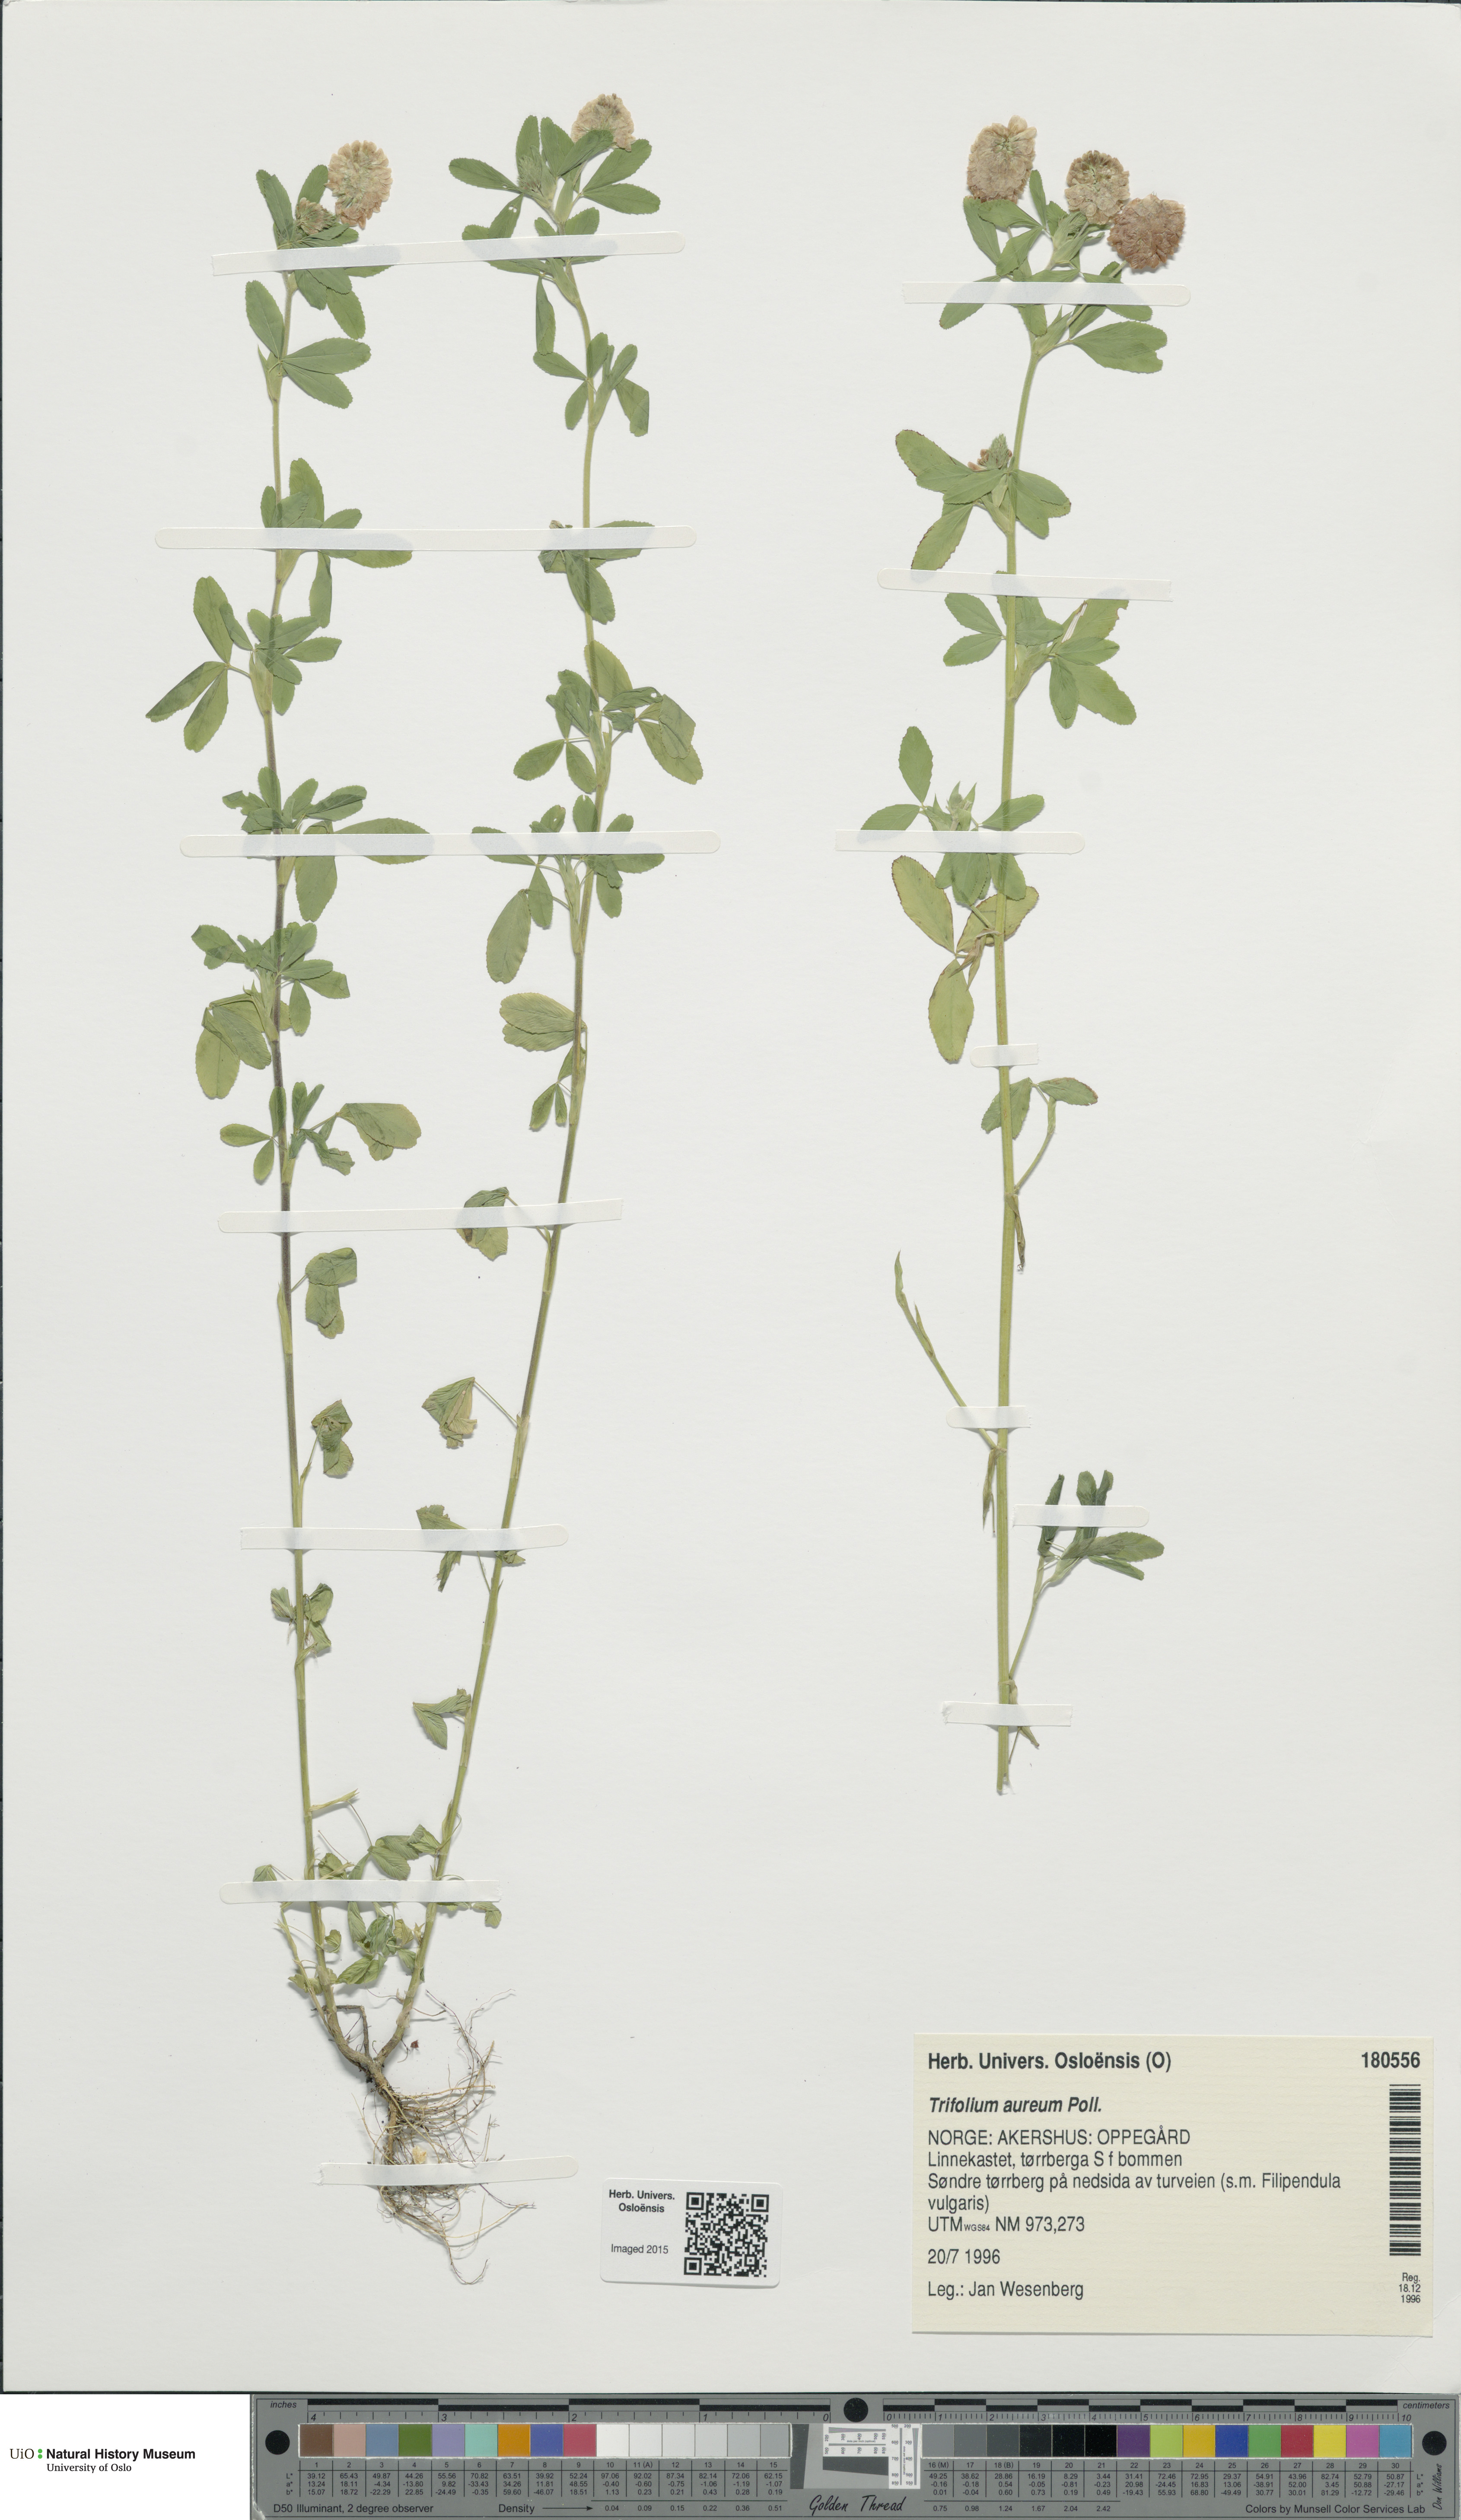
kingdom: Plantae
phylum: Tracheophyta
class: Magnoliopsida
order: Fabales
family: Fabaceae
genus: Trifolium
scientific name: Trifolium aureum
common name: Golden clover
